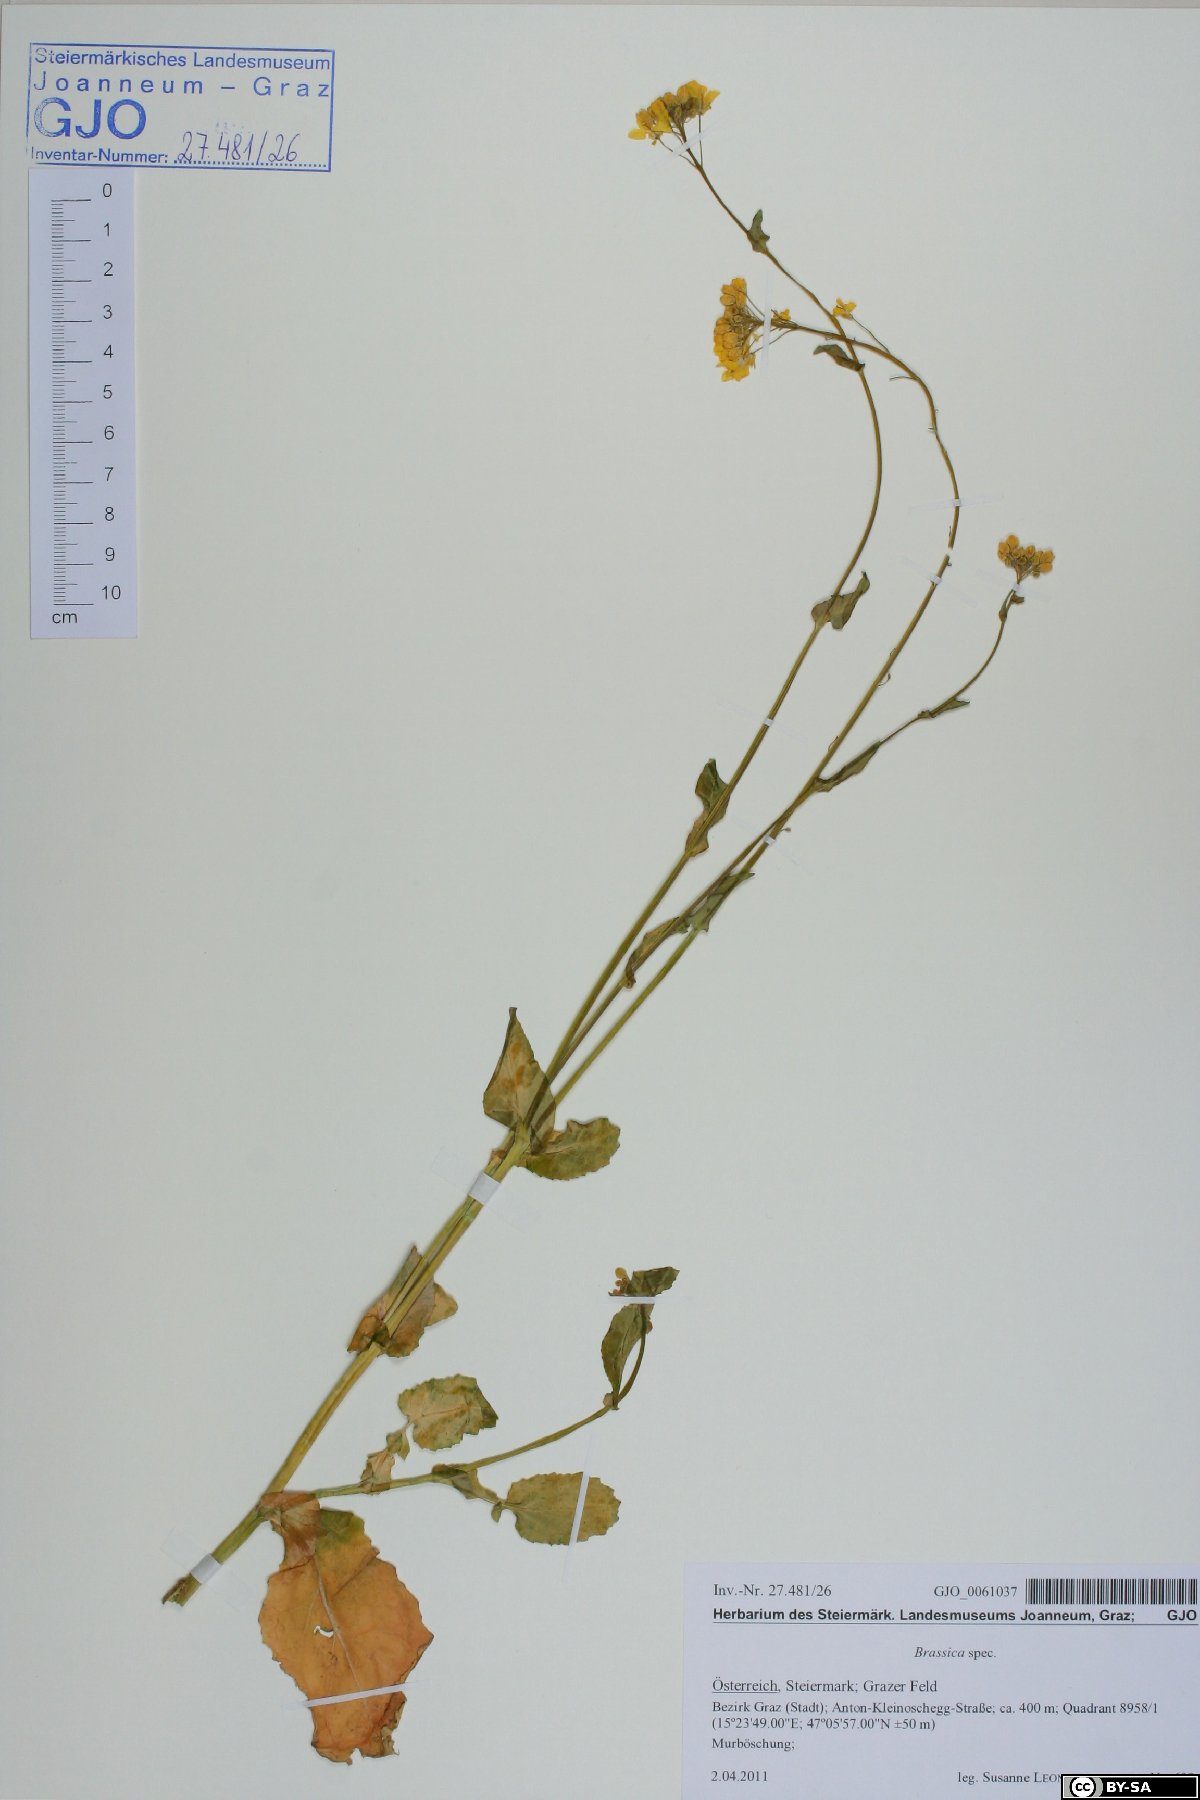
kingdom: Plantae
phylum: Tracheophyta
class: Magnoliopsida
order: Brassicales
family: Brassicaceae
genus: Brassica
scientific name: Brassica rapa
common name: Field mustard
